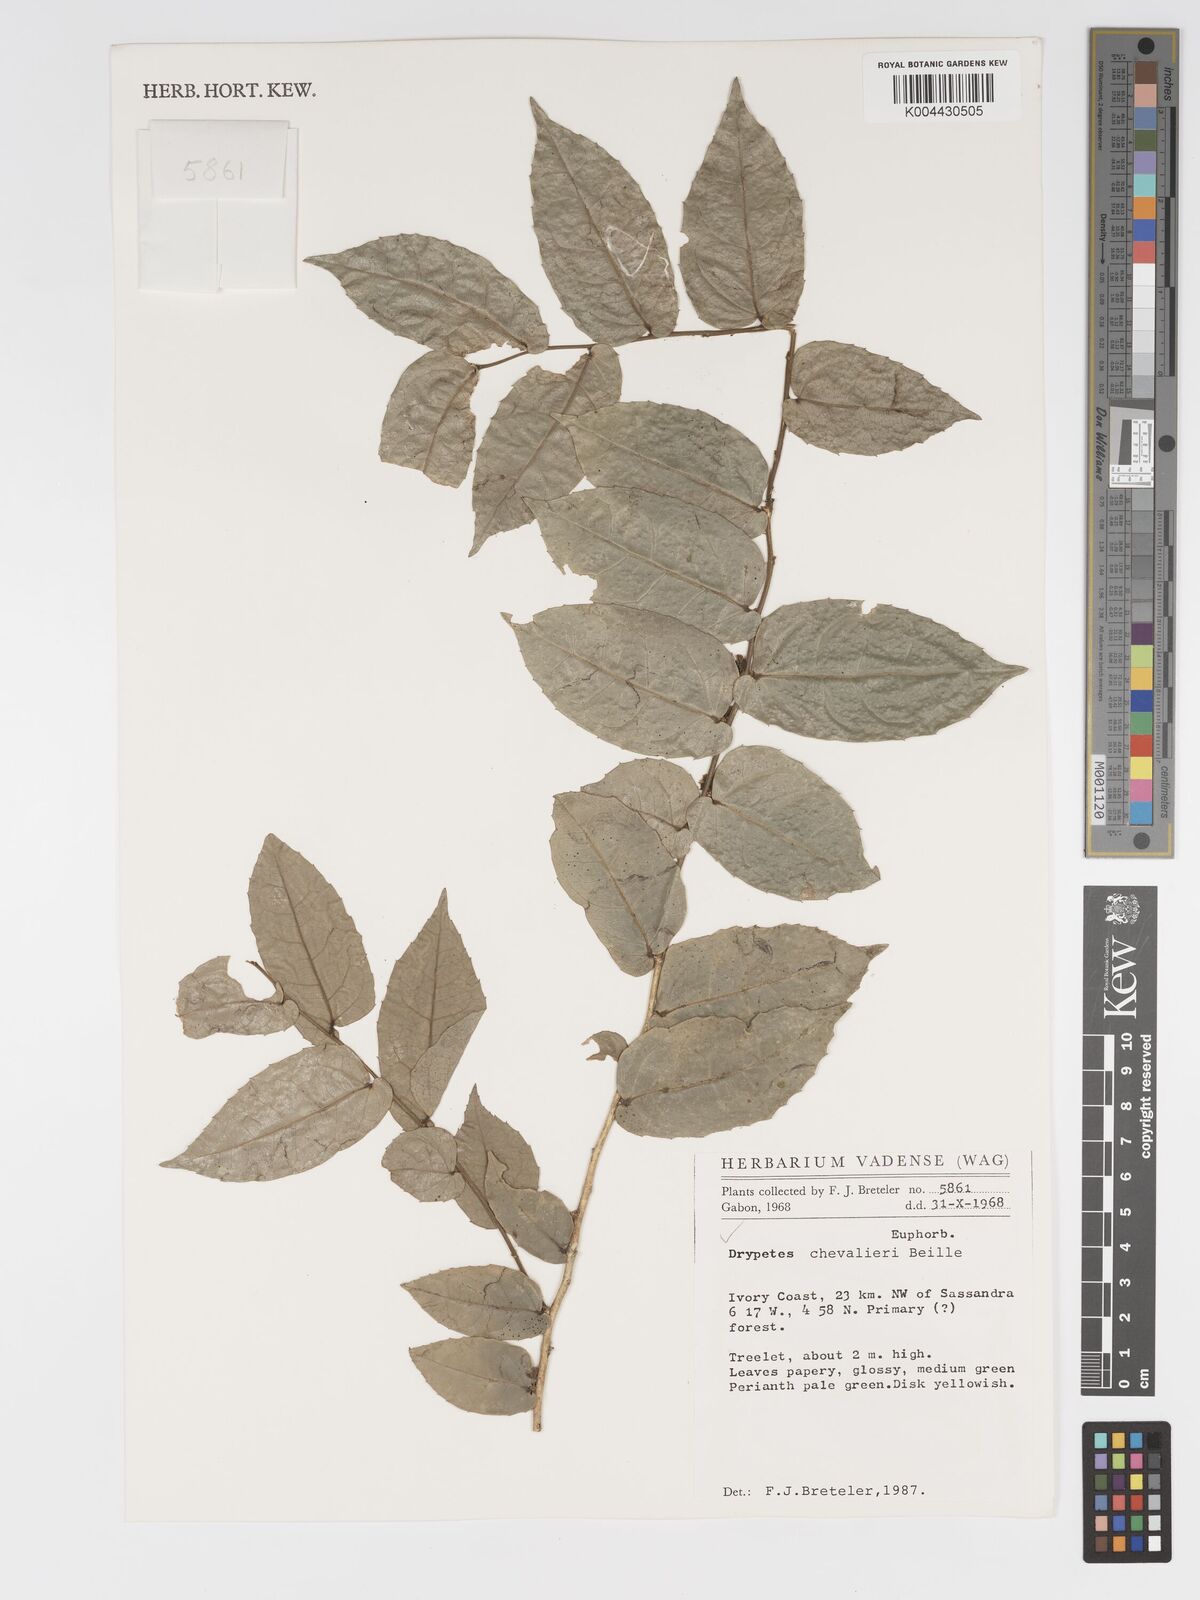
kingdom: Plantae
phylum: Tracheophyta
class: Magnoliopsida
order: Malpighiales
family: Putranjivaceae
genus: Drypetes
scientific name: Drypetes chevalieri
